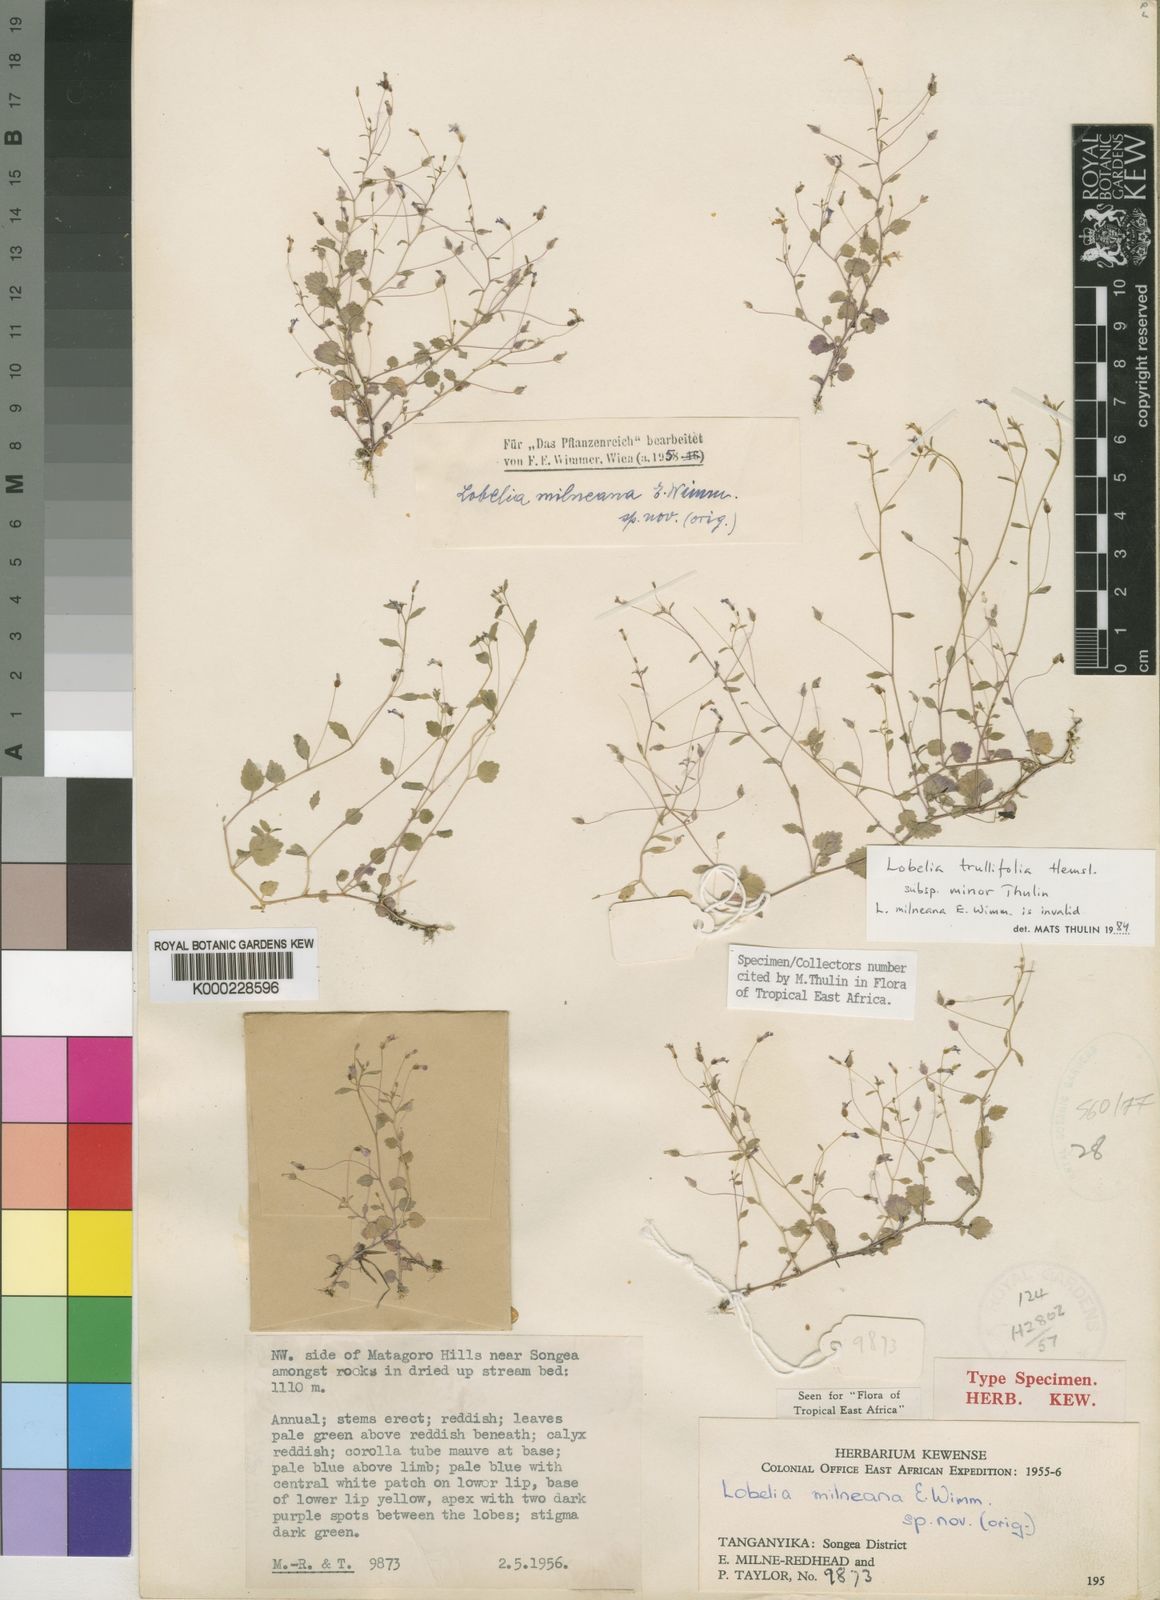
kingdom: Plantae
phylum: Tracheophyta
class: Magnoliopsida
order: Asterales
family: Campanulaceae
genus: Lobelia
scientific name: Lobelia trullifolia
